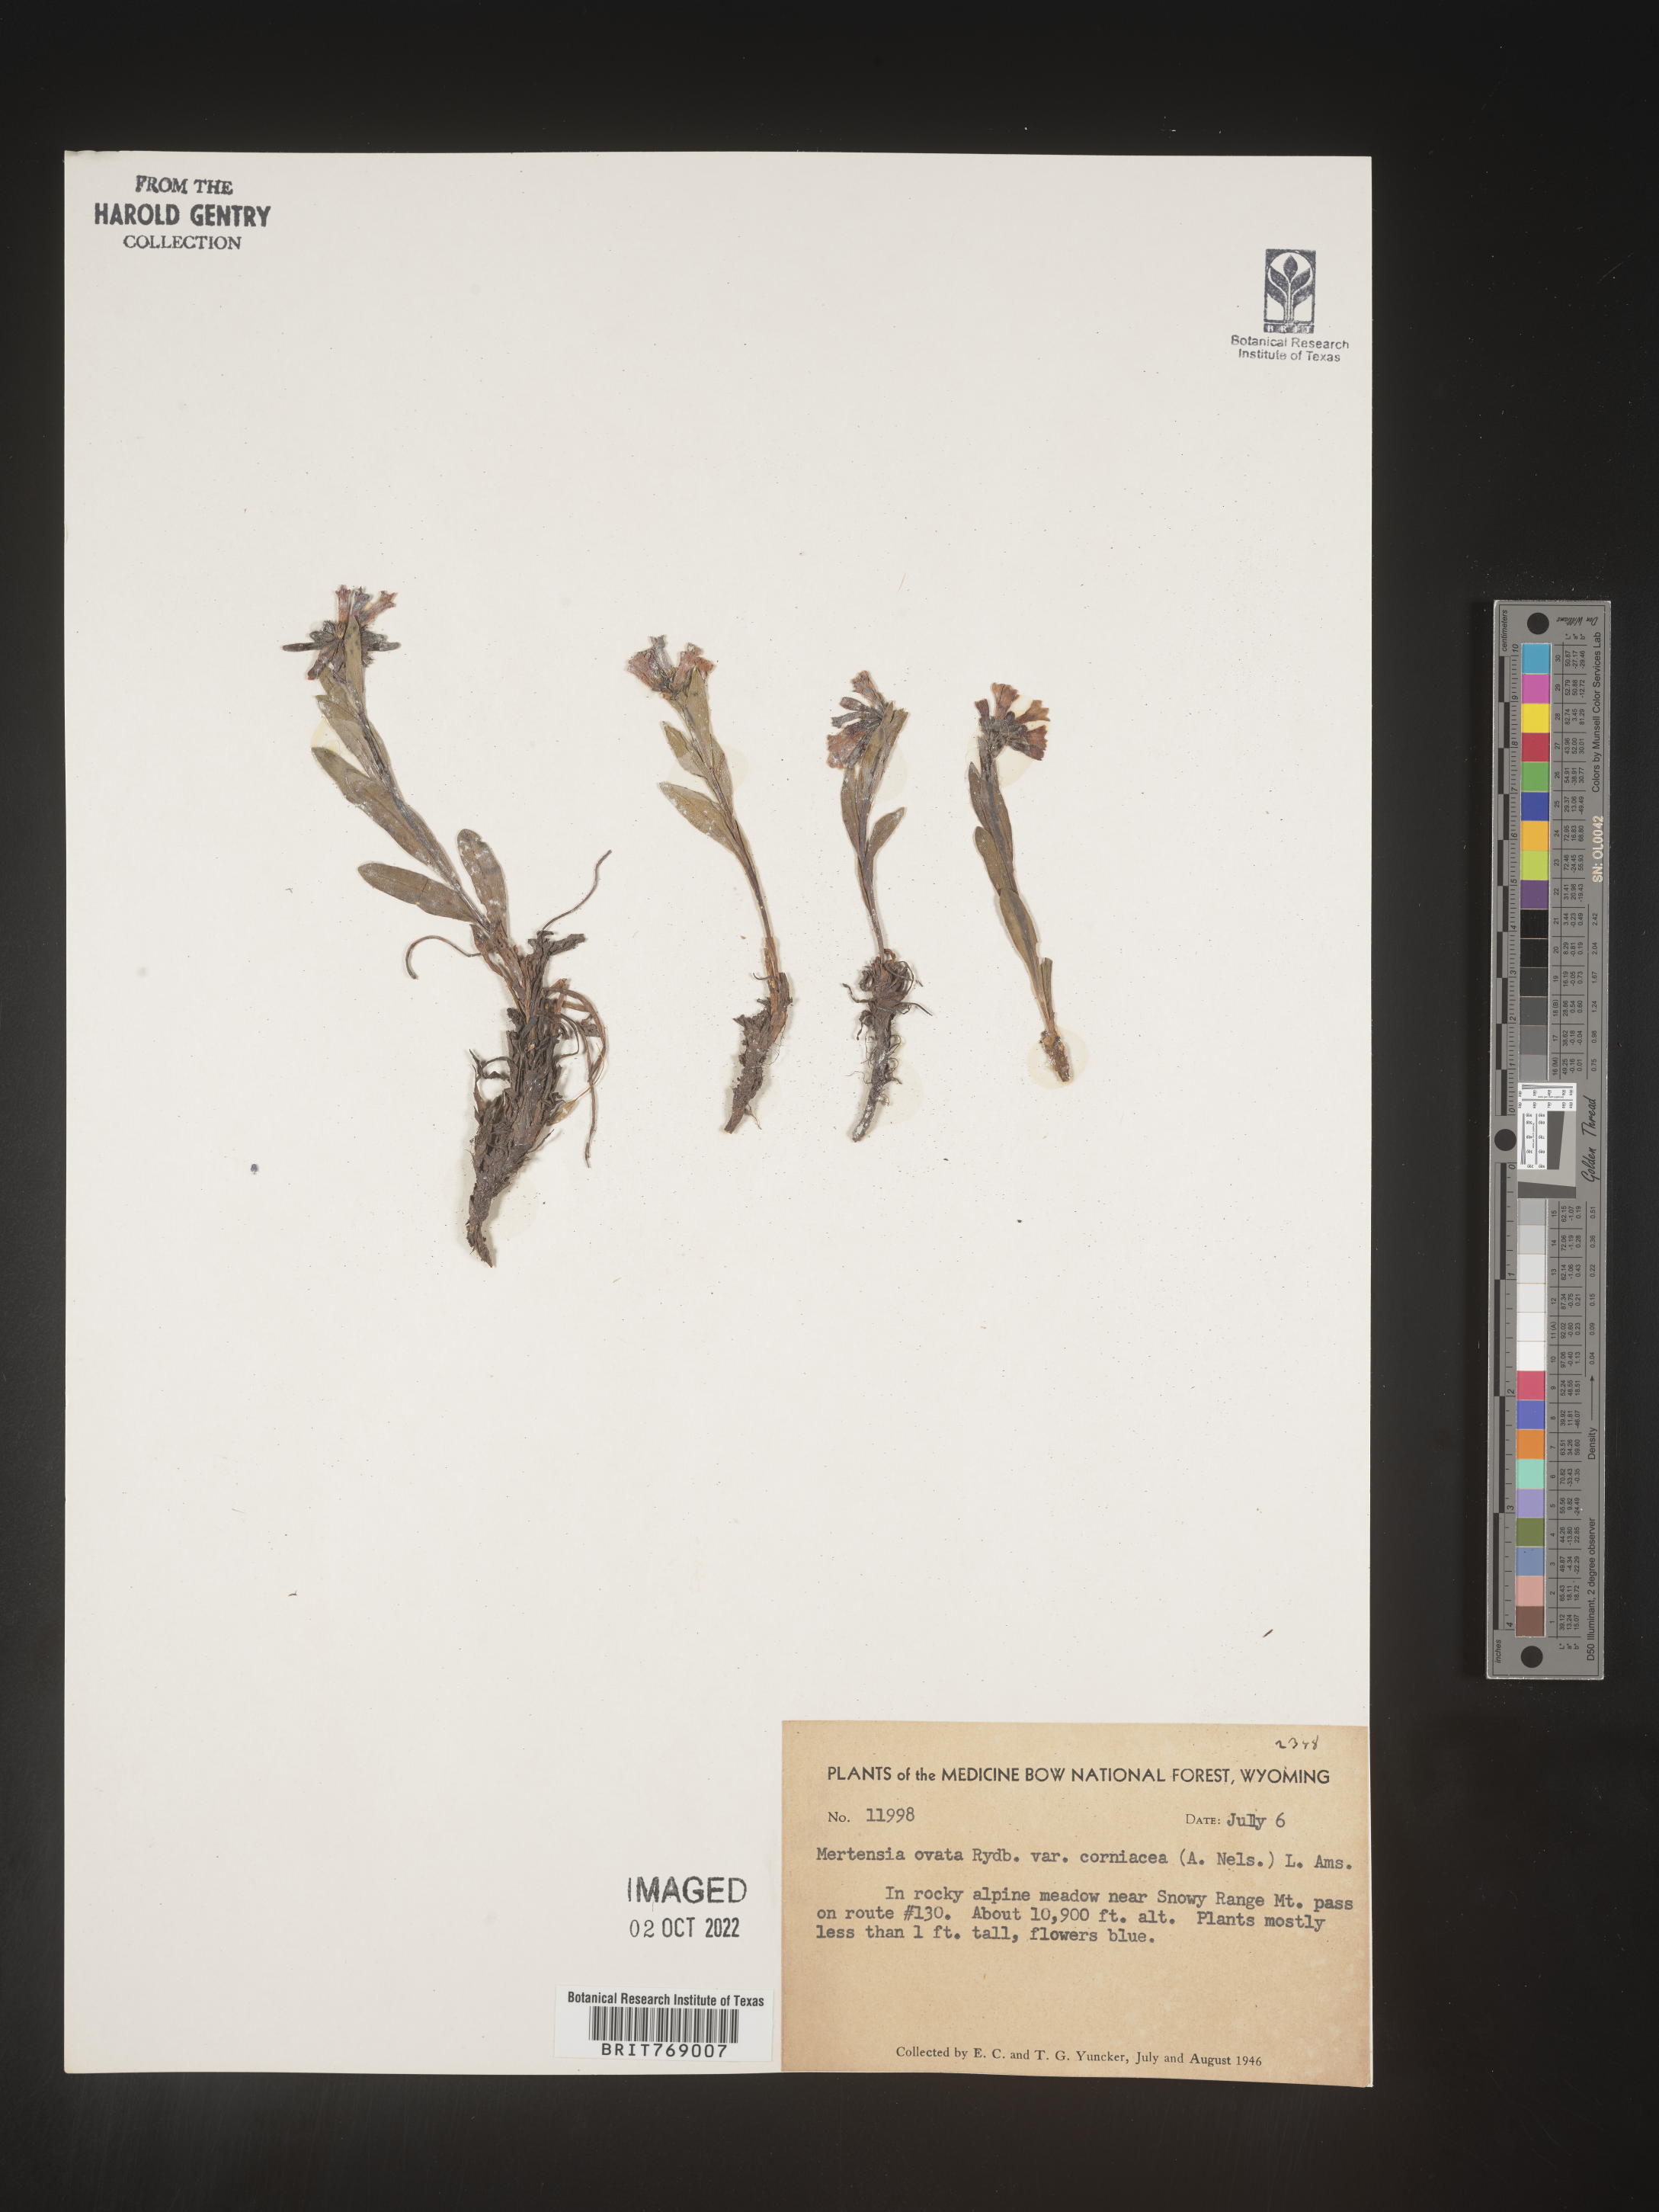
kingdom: Plantae
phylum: Tracheophyta
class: Magnoliopsida
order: Boraginales
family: Boraginaceae
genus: Mertensia
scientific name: Mertensia
